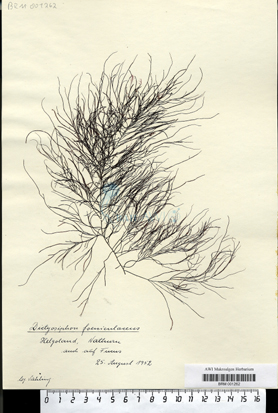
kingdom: Chromista
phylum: Ochrophyta
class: Phaeophyceae
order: Ectocarpales
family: Chordariaceae
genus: Dictyosiphon
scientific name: Dictyosiphon foeniculaceus
